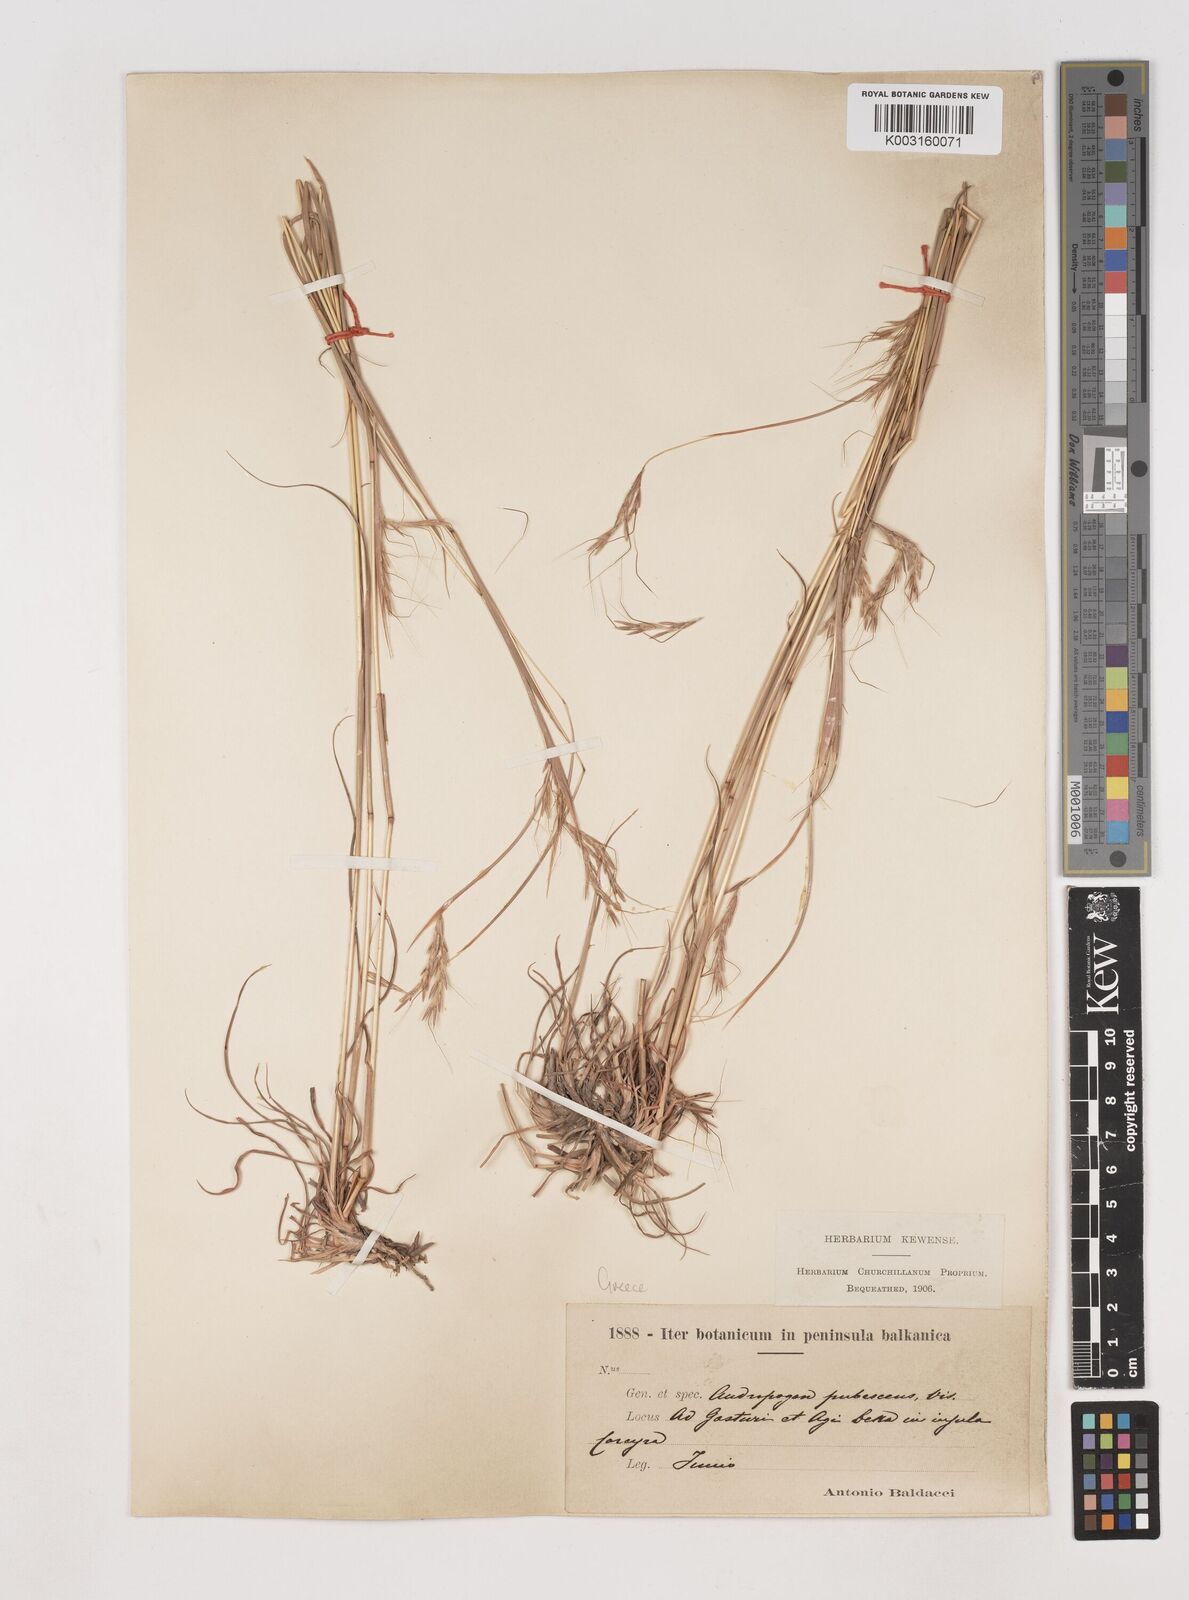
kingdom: Plantae
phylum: Tracheophyta
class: Liliopsida
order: Poales
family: Poaceae
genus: Hyparrhenia
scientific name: Hyparrhenia hirta
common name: Thatching grass
